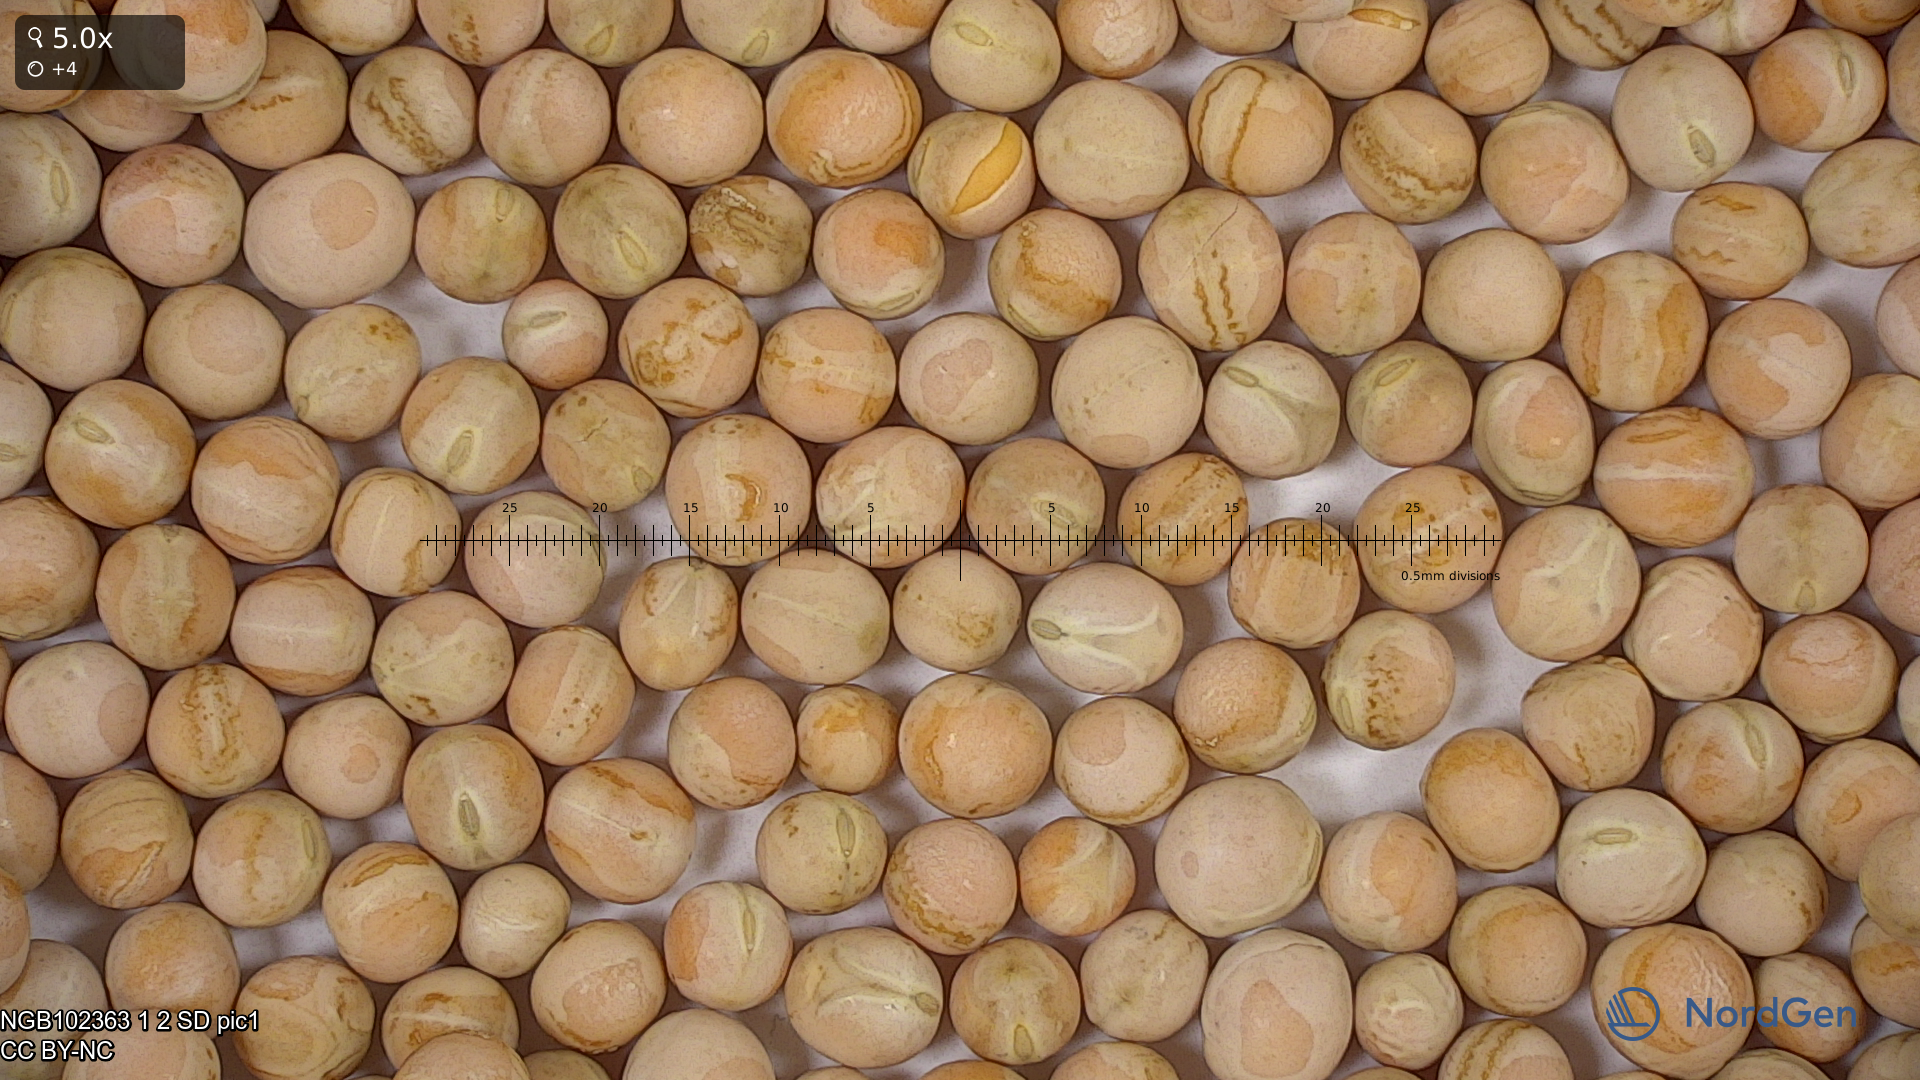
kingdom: Plantae
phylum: Tracheophyta
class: Magnoliopsida
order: Fabales
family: Fabaceae
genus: Lathyrus
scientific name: Lathyrus oleraceus
